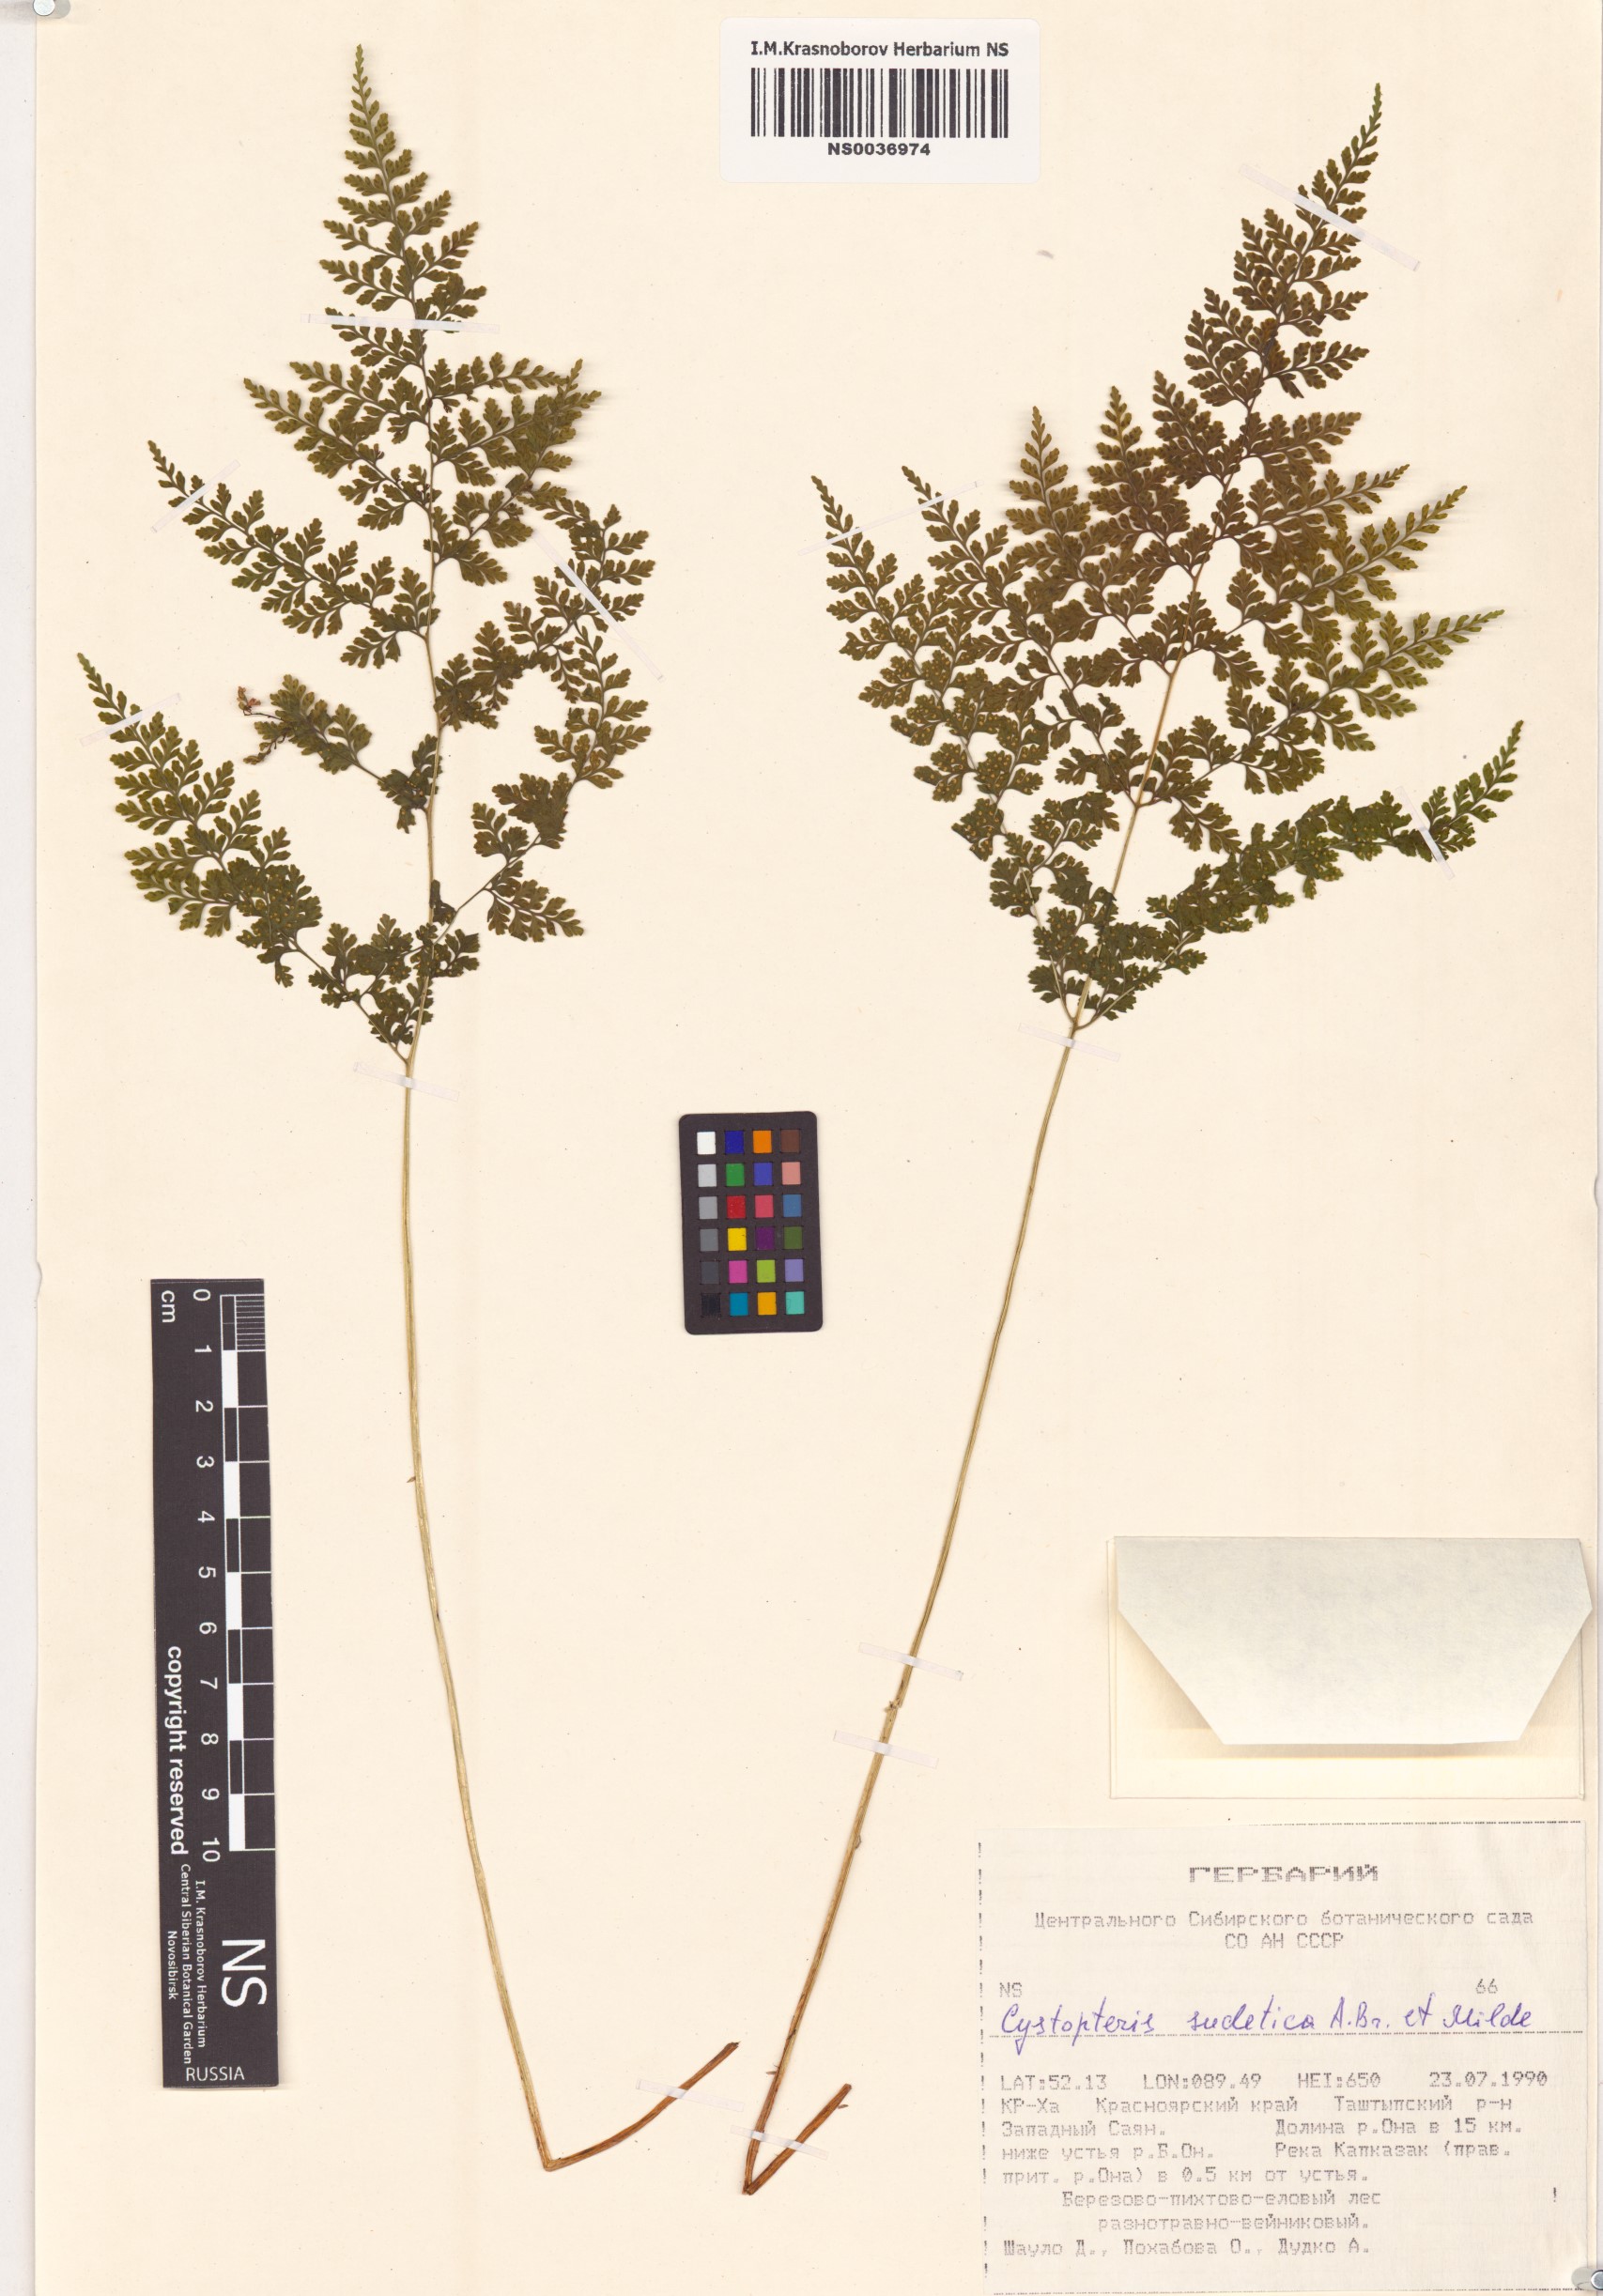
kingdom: Plantae
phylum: Tracheophyta
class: Polypodiopsida
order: Polypodiales
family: Cystopteridaceae
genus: Cystopteris
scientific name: Cystopteris sudetica
